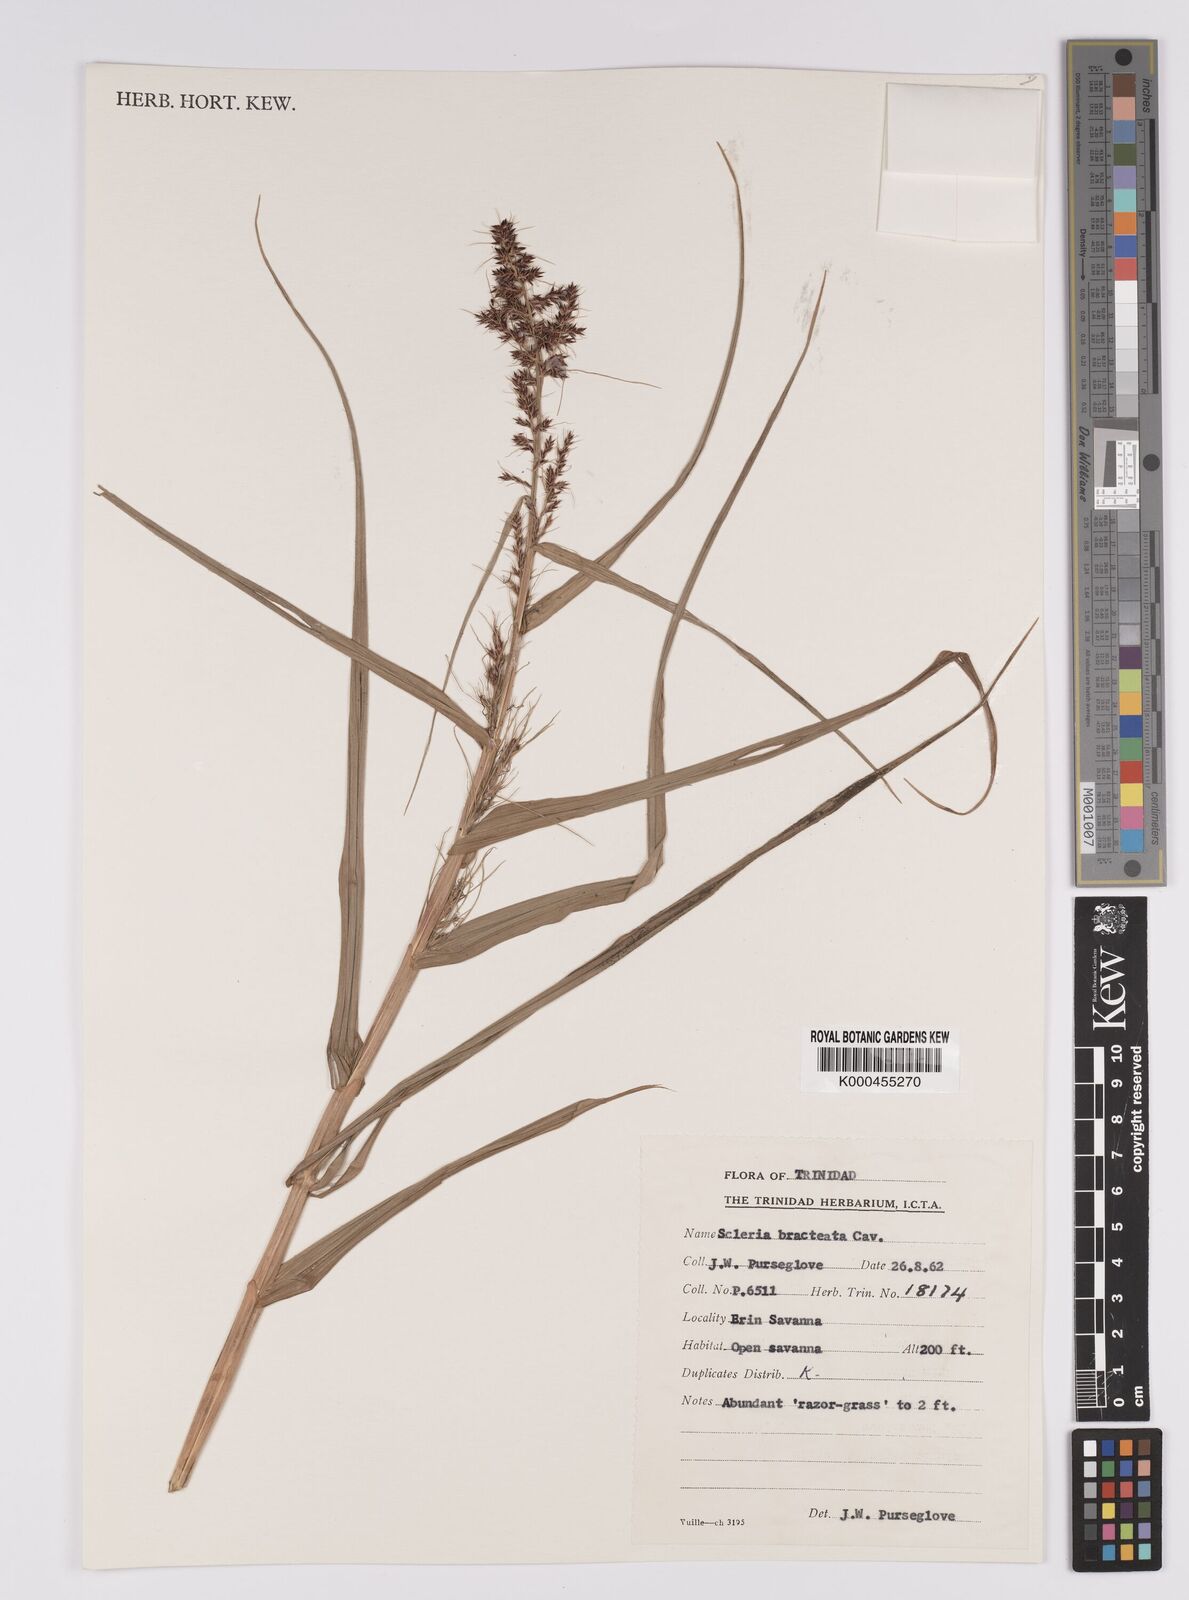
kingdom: Plantae
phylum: Tracheophyta
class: Liliopsida
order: Poales
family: Cyperaceae
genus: Scleria
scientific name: Scleria bracteata
